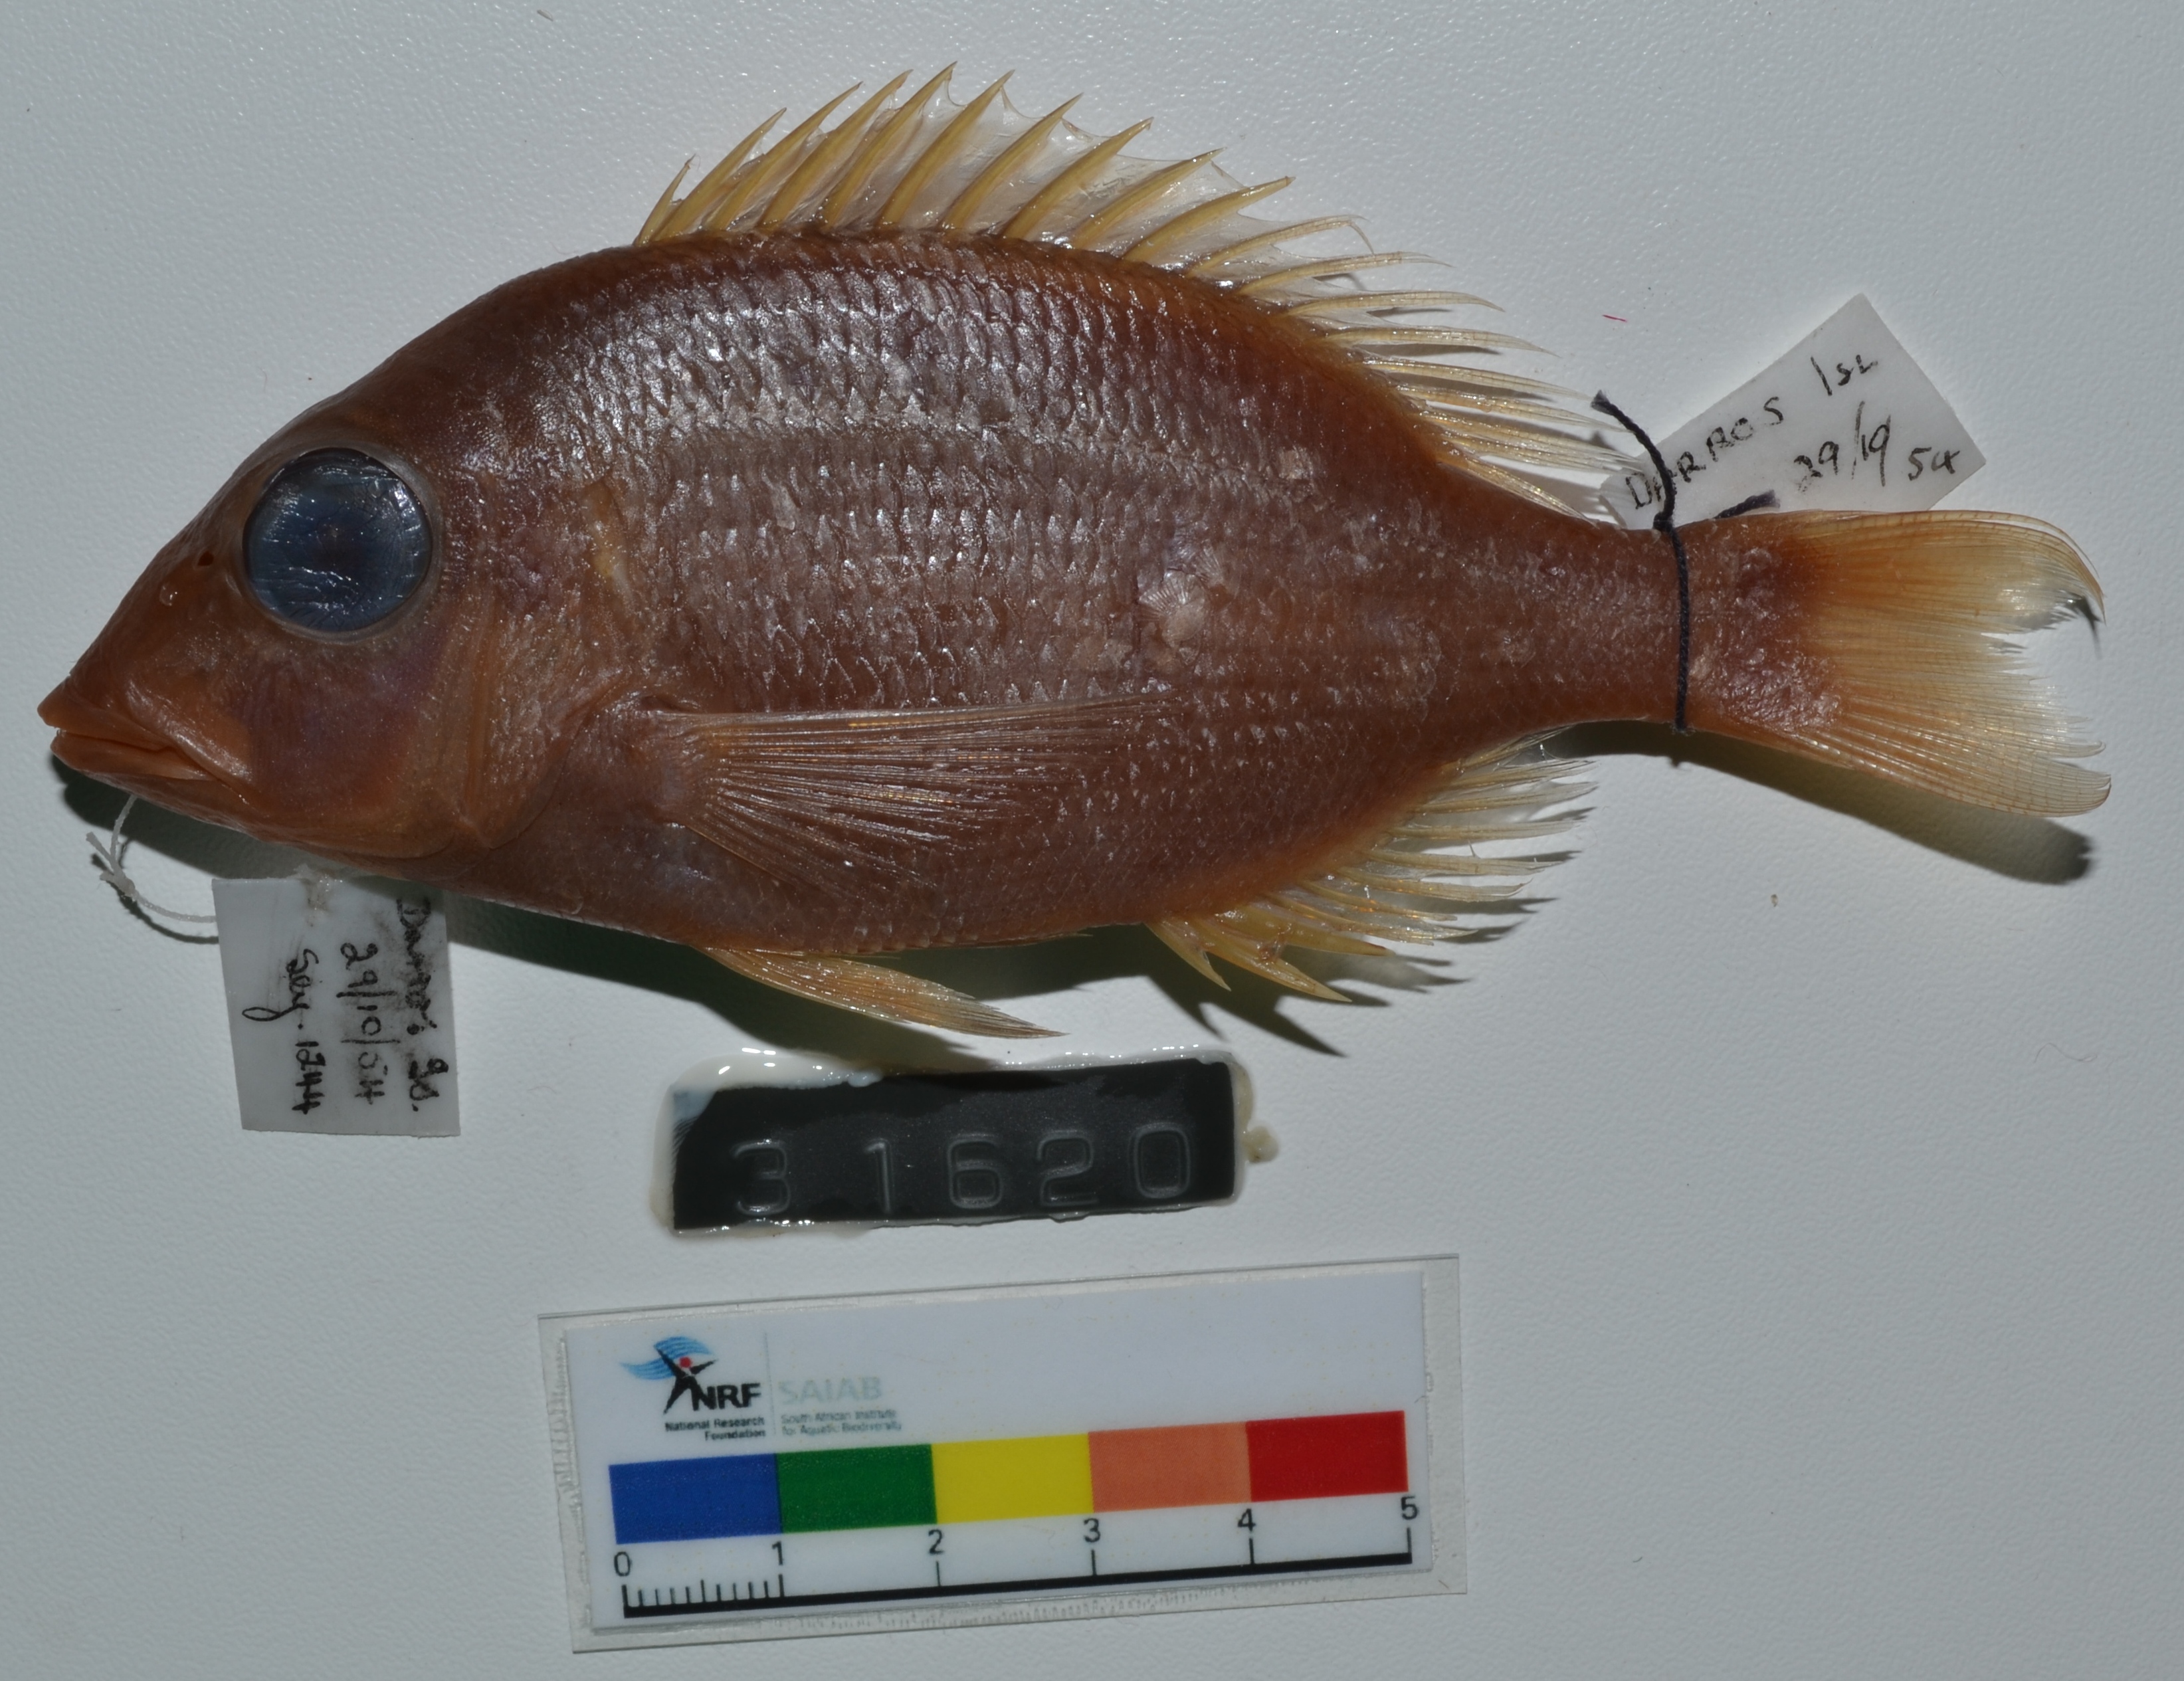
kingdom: Animalia
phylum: Chordata
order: Perciformes
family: Lethrinidae
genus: Lethrinus
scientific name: Lethrinus erythracanthus
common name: Orange-spotted emperor
